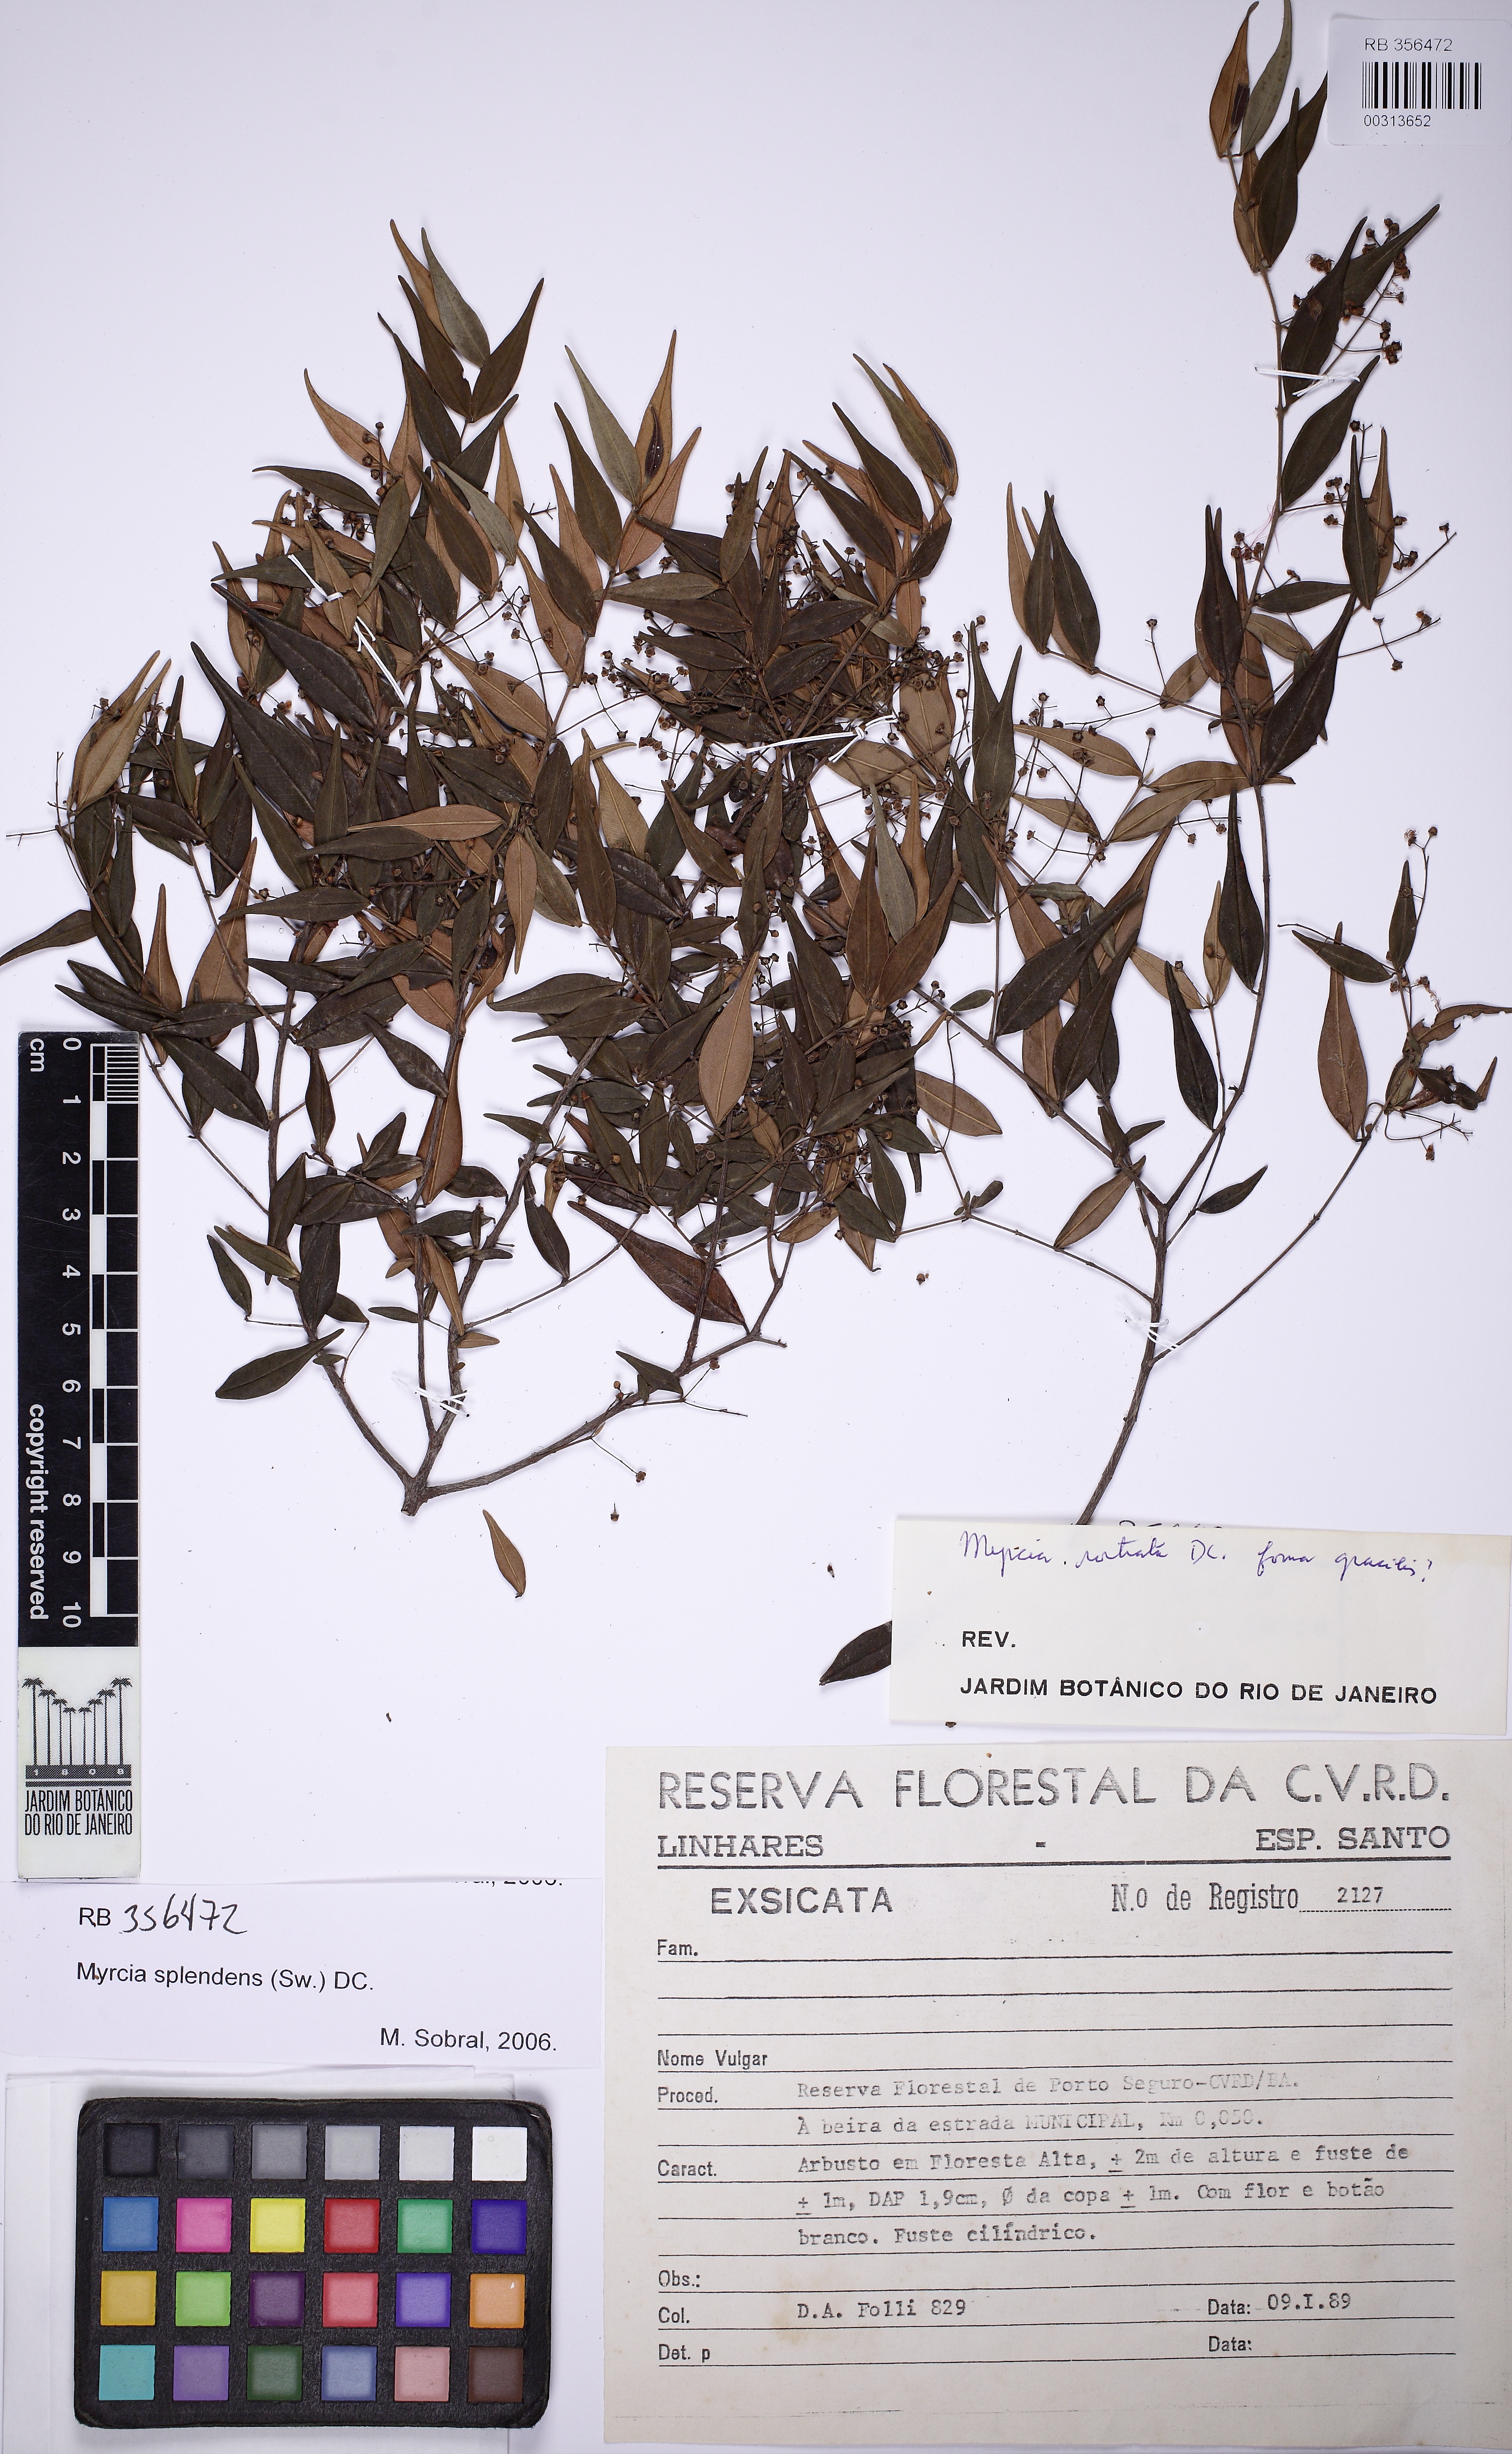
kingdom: Plantae
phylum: Tracheophyta
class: Magnoliopsida
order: Myrtales
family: Myrtaceae
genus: Myrcia
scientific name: Myrcia splendens
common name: Surinam cherry
